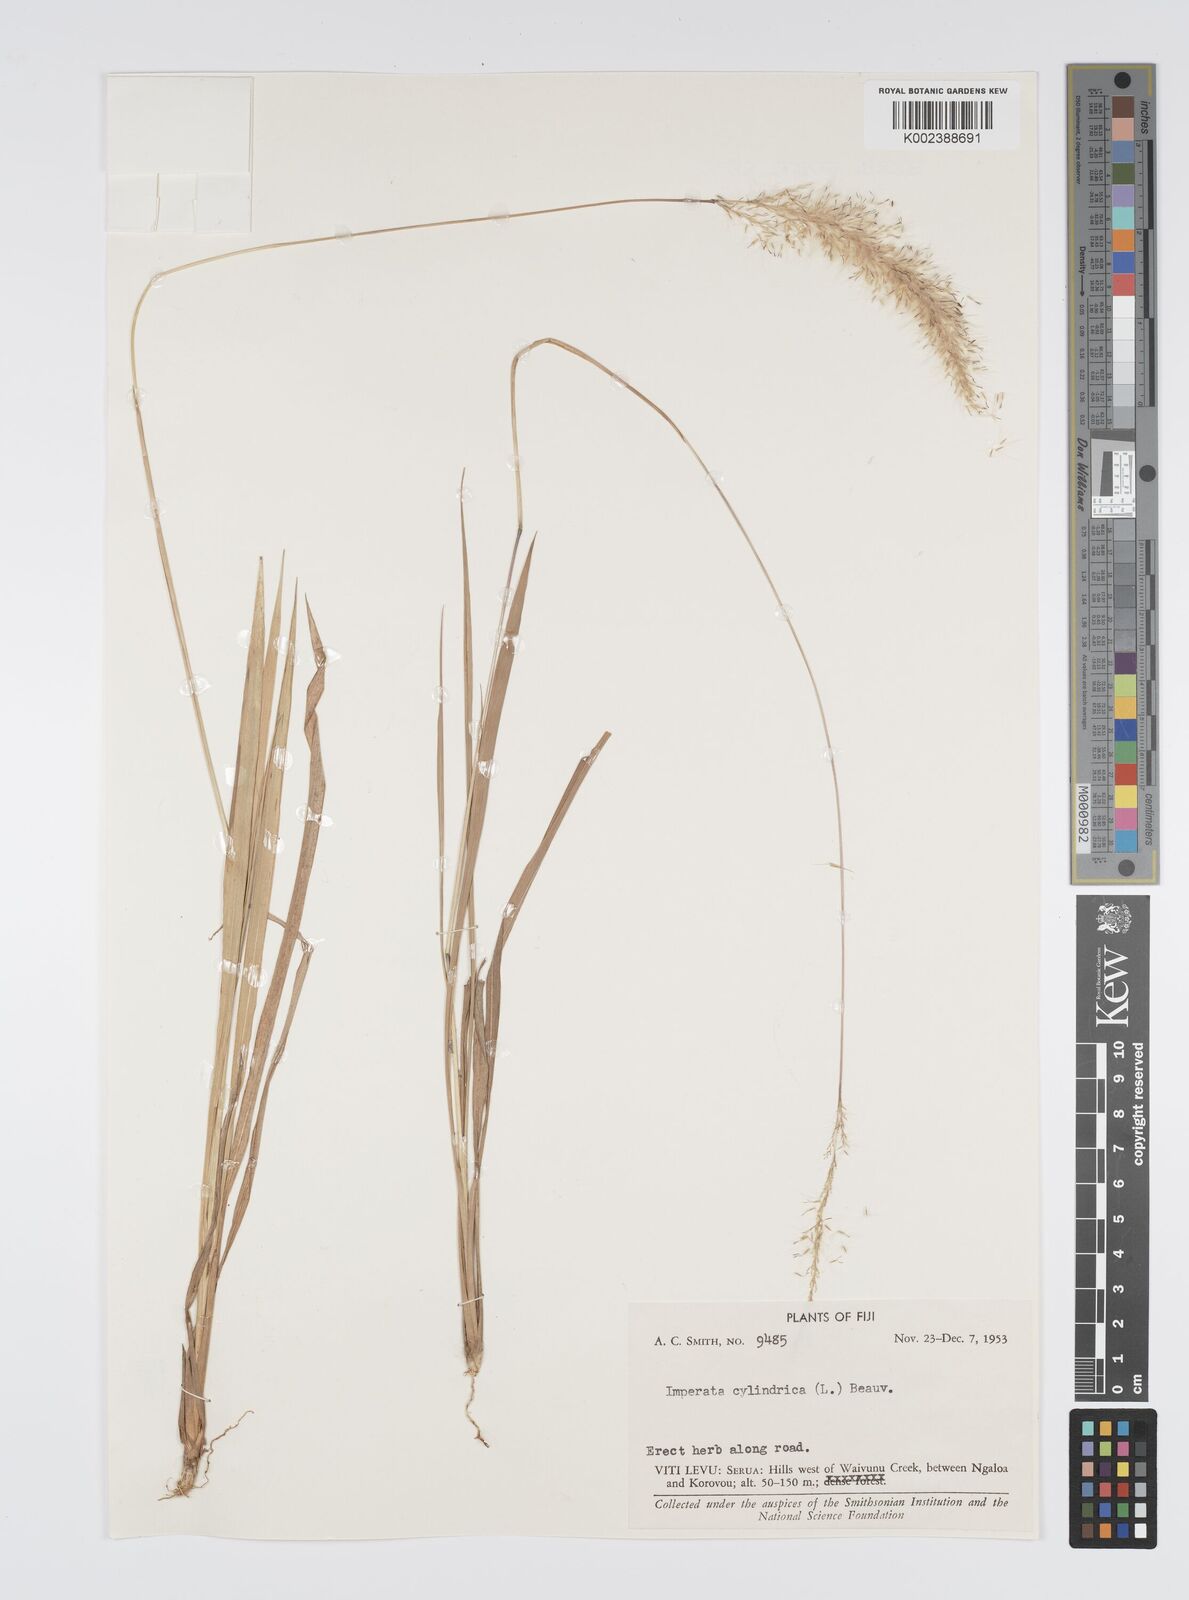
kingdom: Plantae
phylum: Tracheophyta
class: Liliopsida
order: Poales
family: Poaceae
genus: Imperata
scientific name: Imperata cylindrica
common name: Cogongrass
